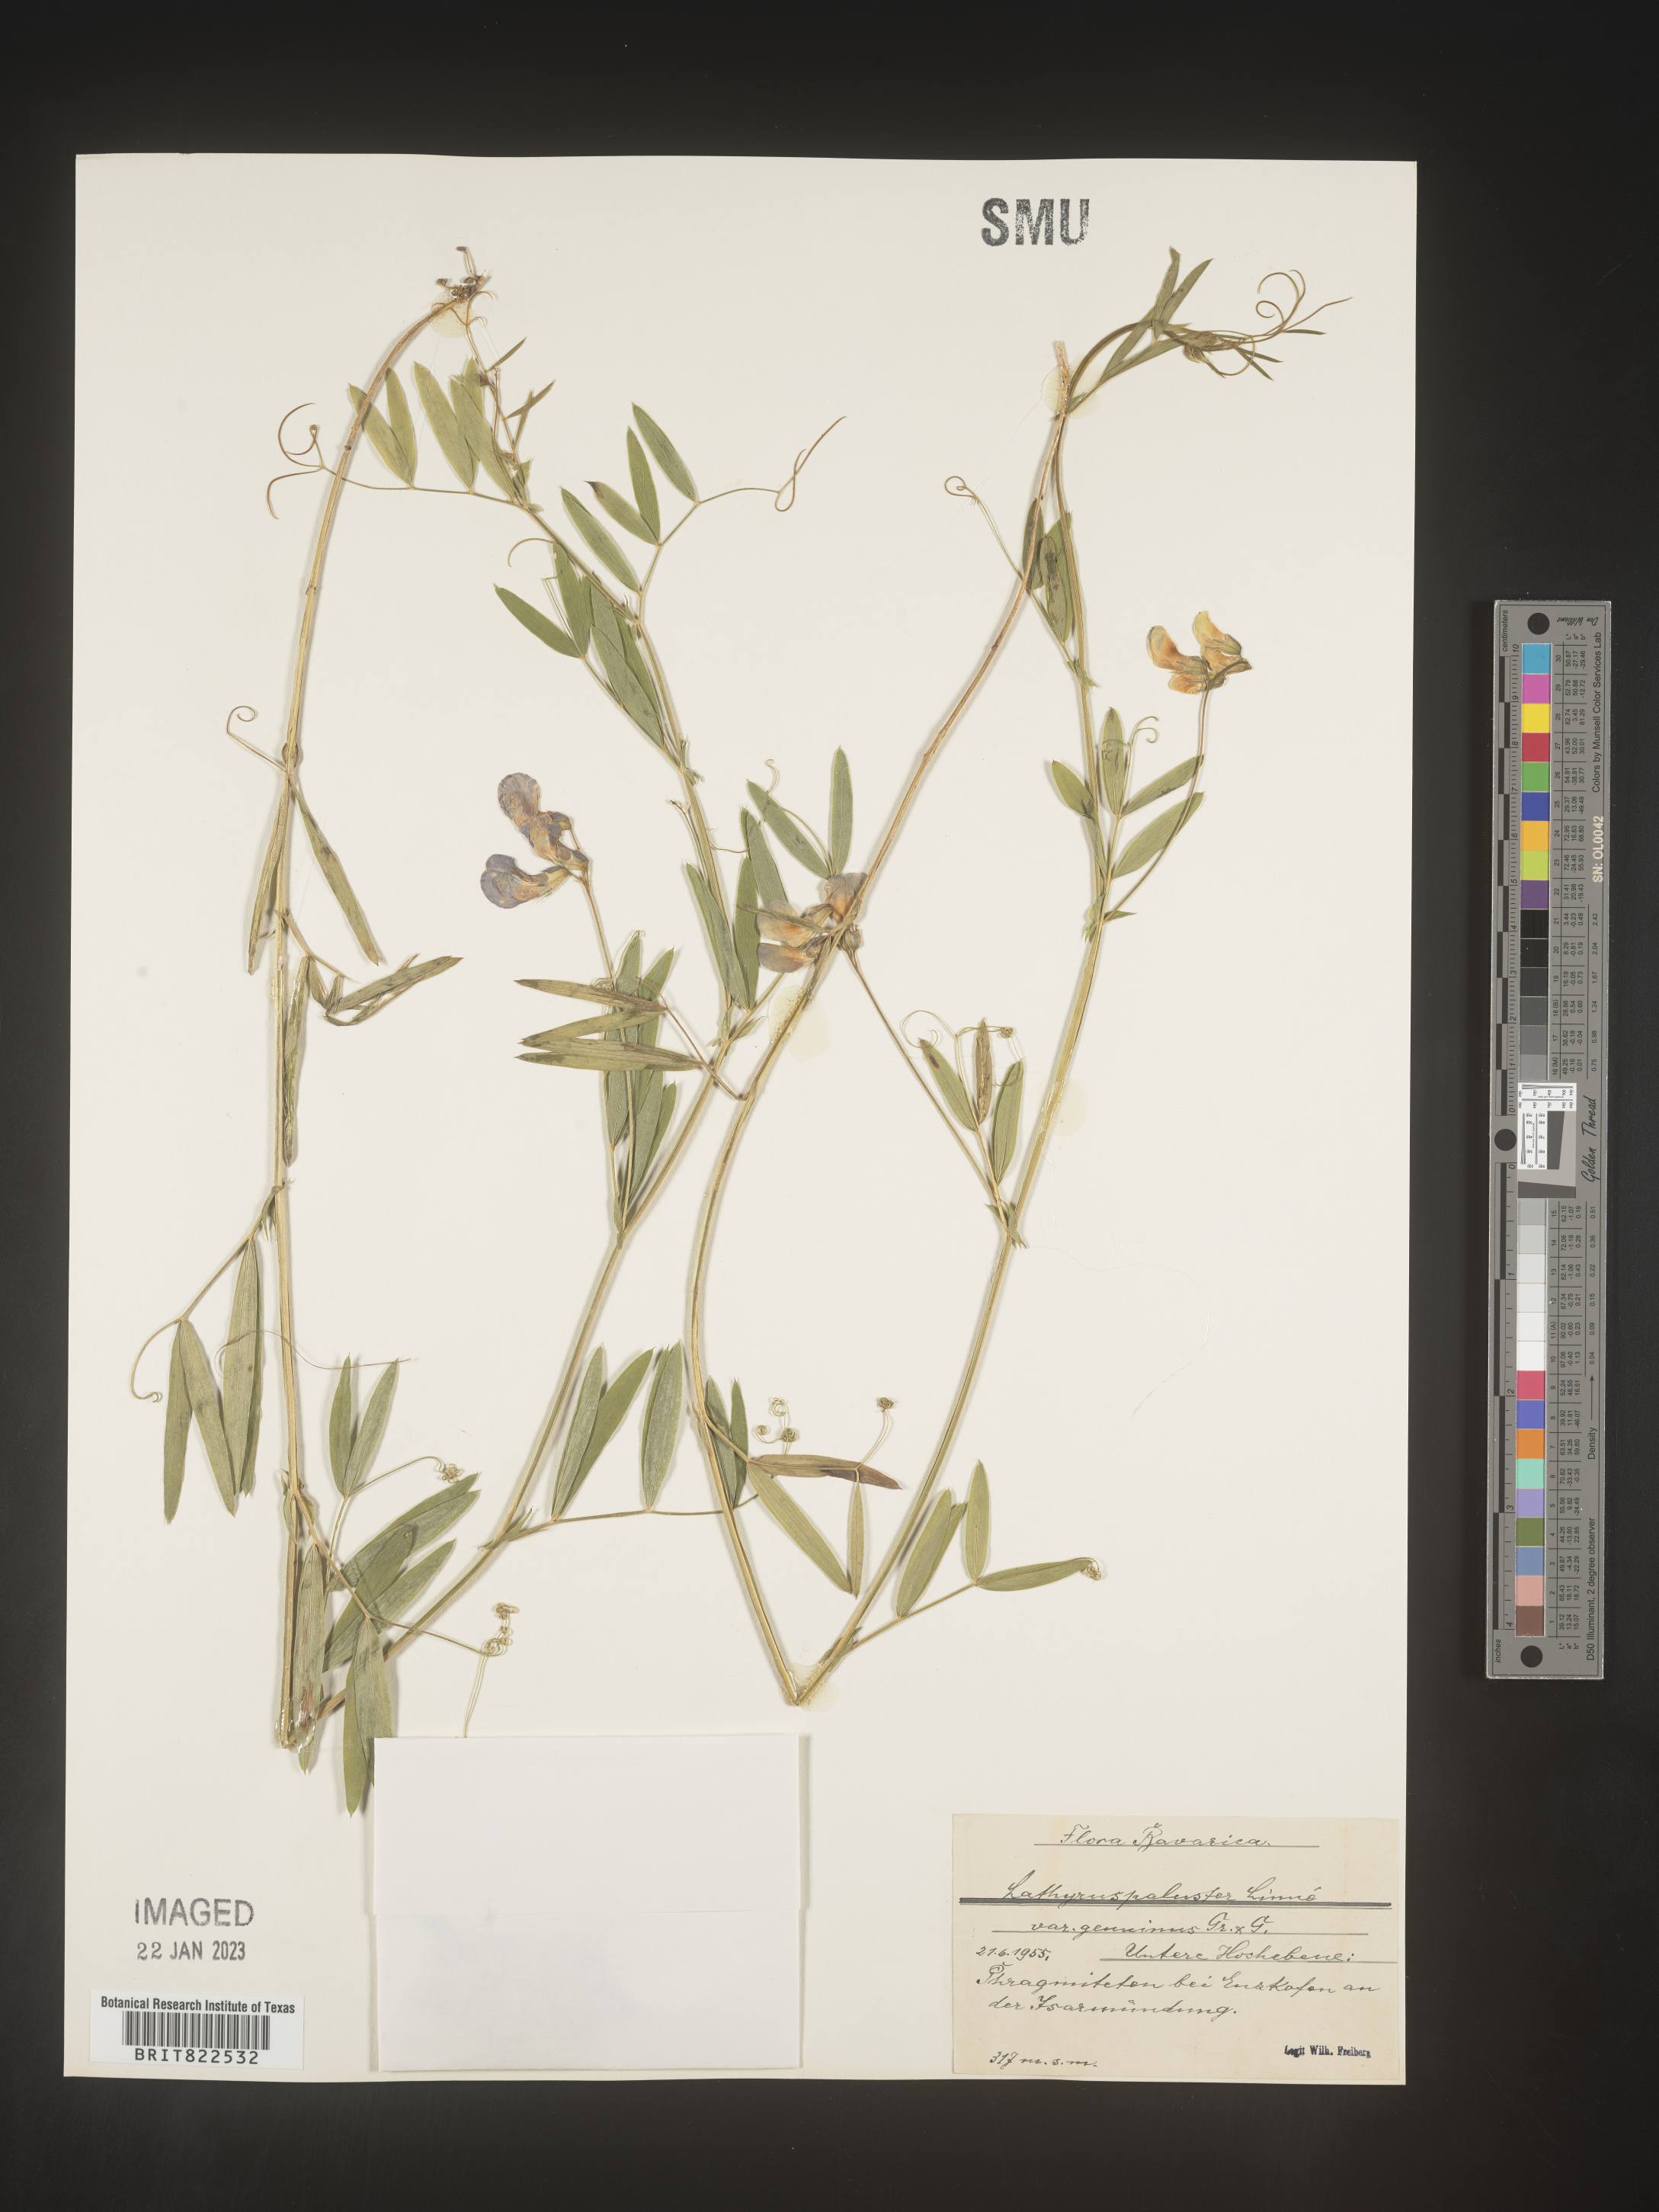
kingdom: Plantae
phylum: Tracheophyta
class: Magnoliopsida
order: Fabales
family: Fabaceae
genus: Lathyrus
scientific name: Lathyrus
